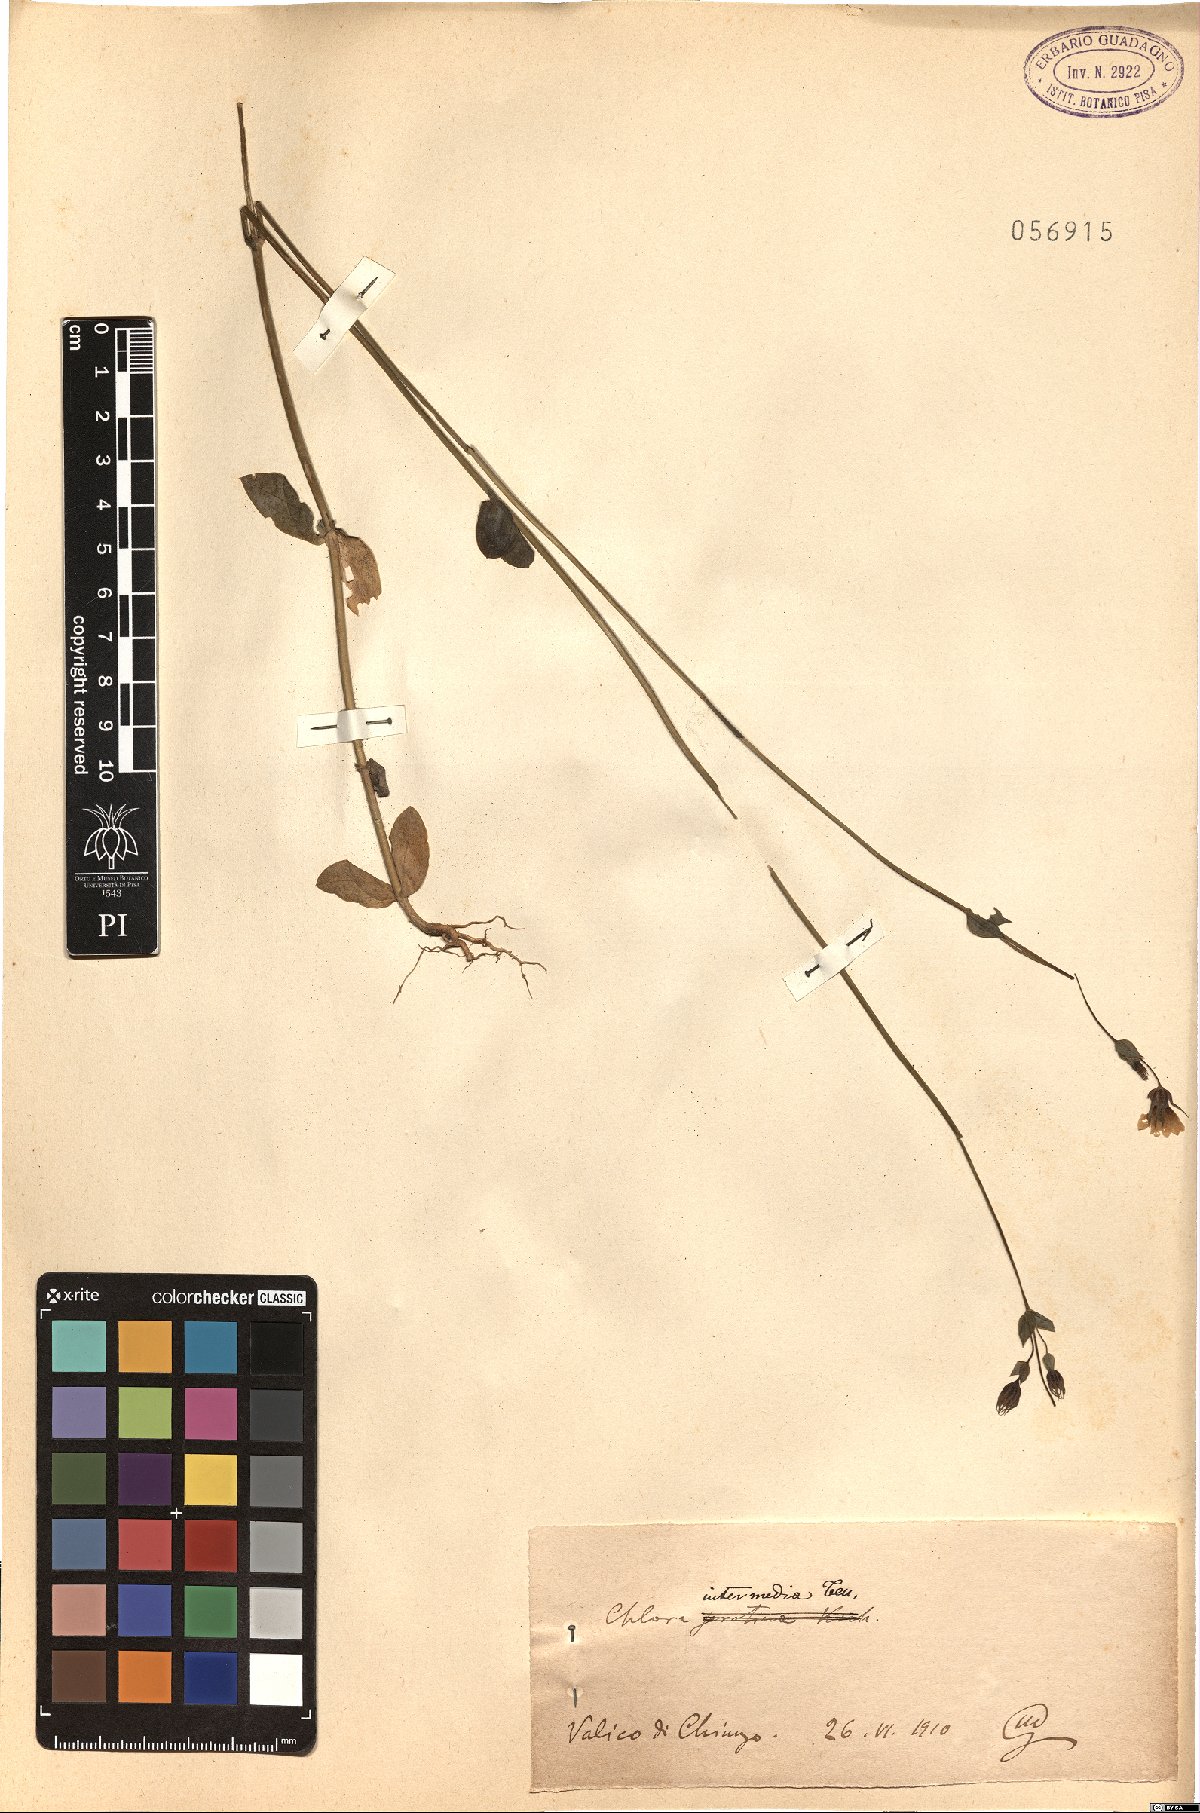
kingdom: Plantae
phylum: Tracheophyta
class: Magnoliopsida
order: Gentianales
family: Gentianaceae
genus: Blackstonia
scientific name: Blackstonia perfoliata
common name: Yellow-wort
